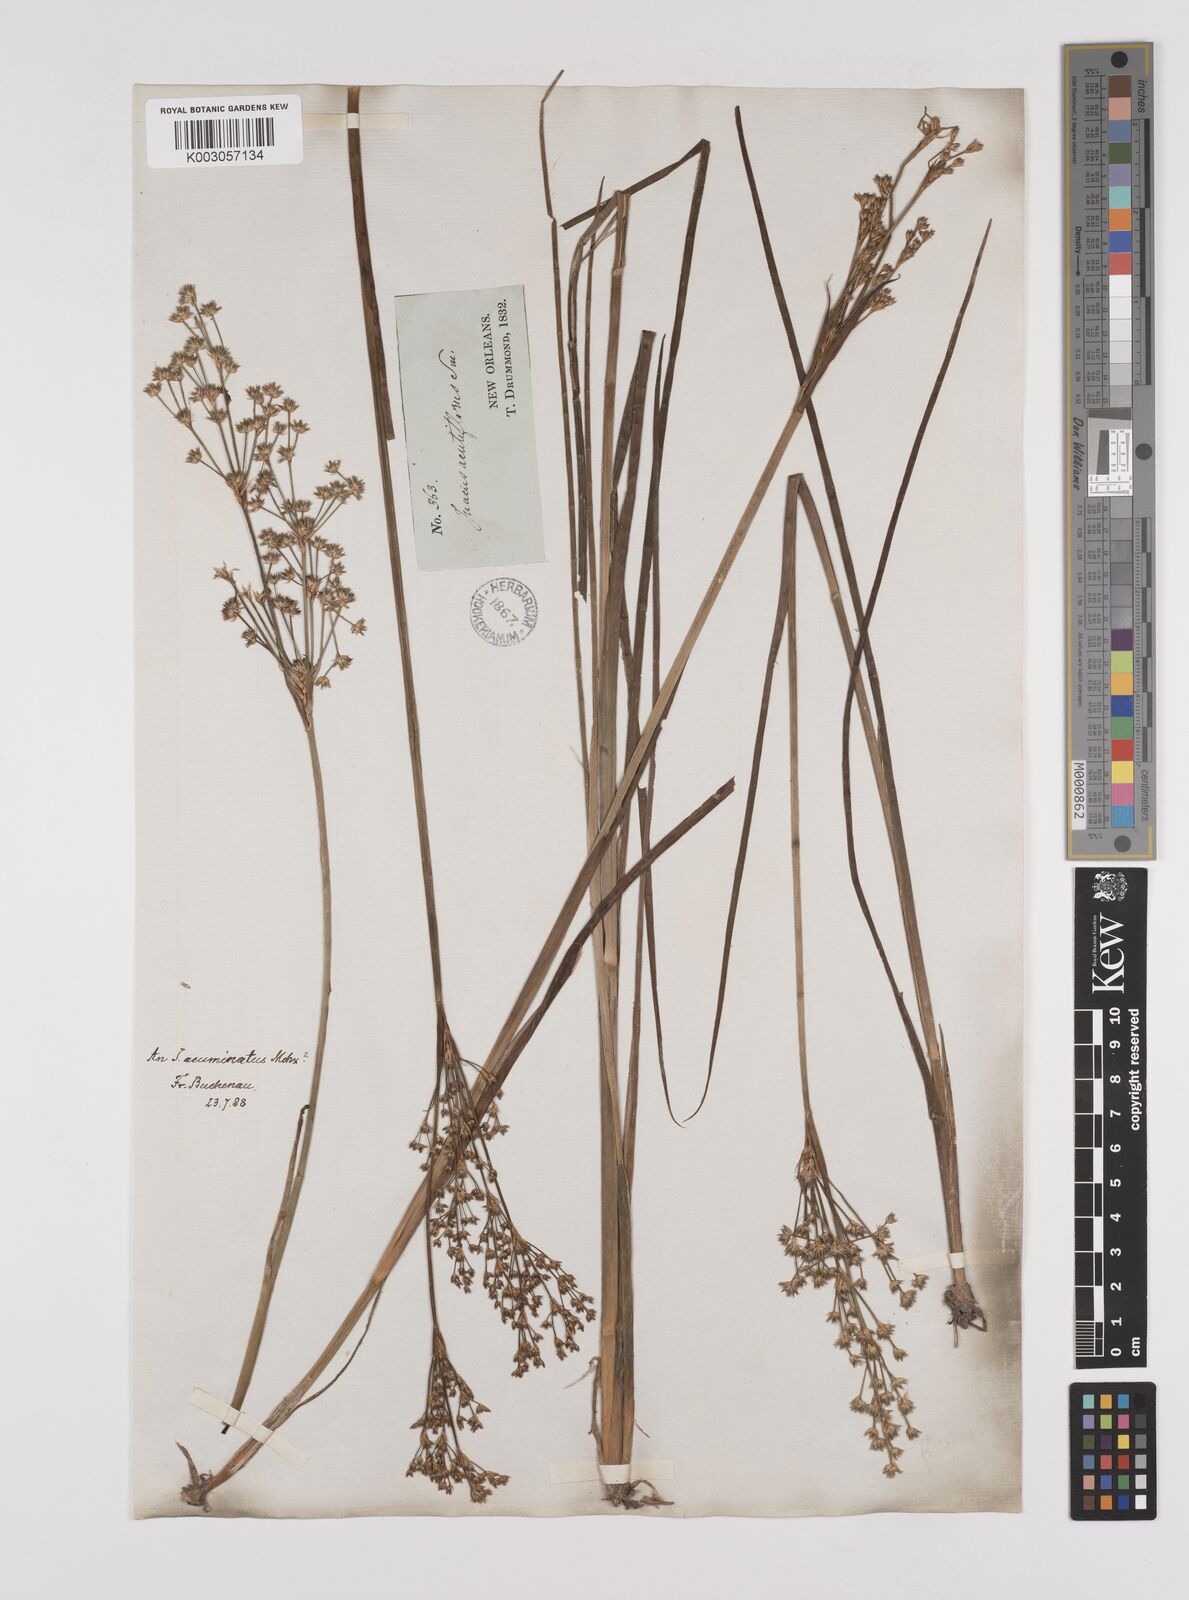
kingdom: Plantae
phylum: Tracheophyta
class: Liliopsida
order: Poales
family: Juncaceae
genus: Juncus
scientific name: Juncus militaris
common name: Bayonet rush
